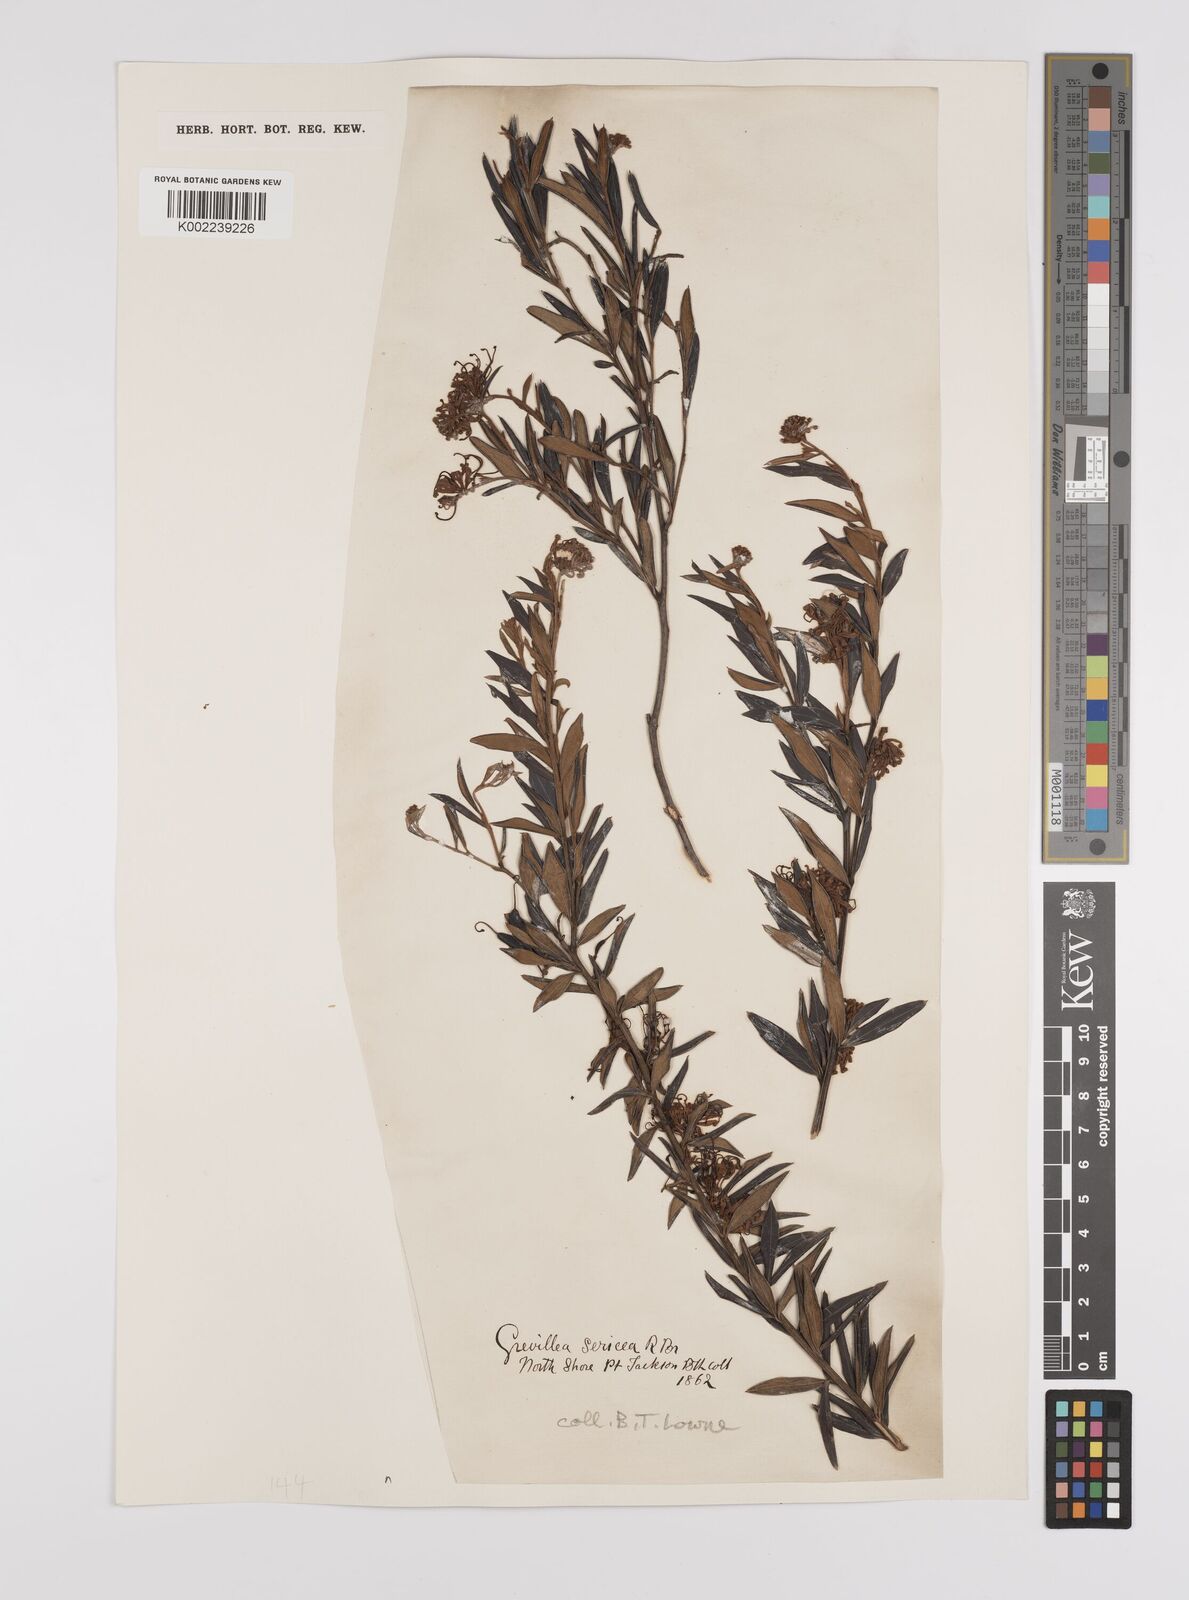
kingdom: Plantae
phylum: Tracheophyta
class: Magnoliopsida
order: Proteales
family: Proteaceae
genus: Grevillea
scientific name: Grevillea sericea
